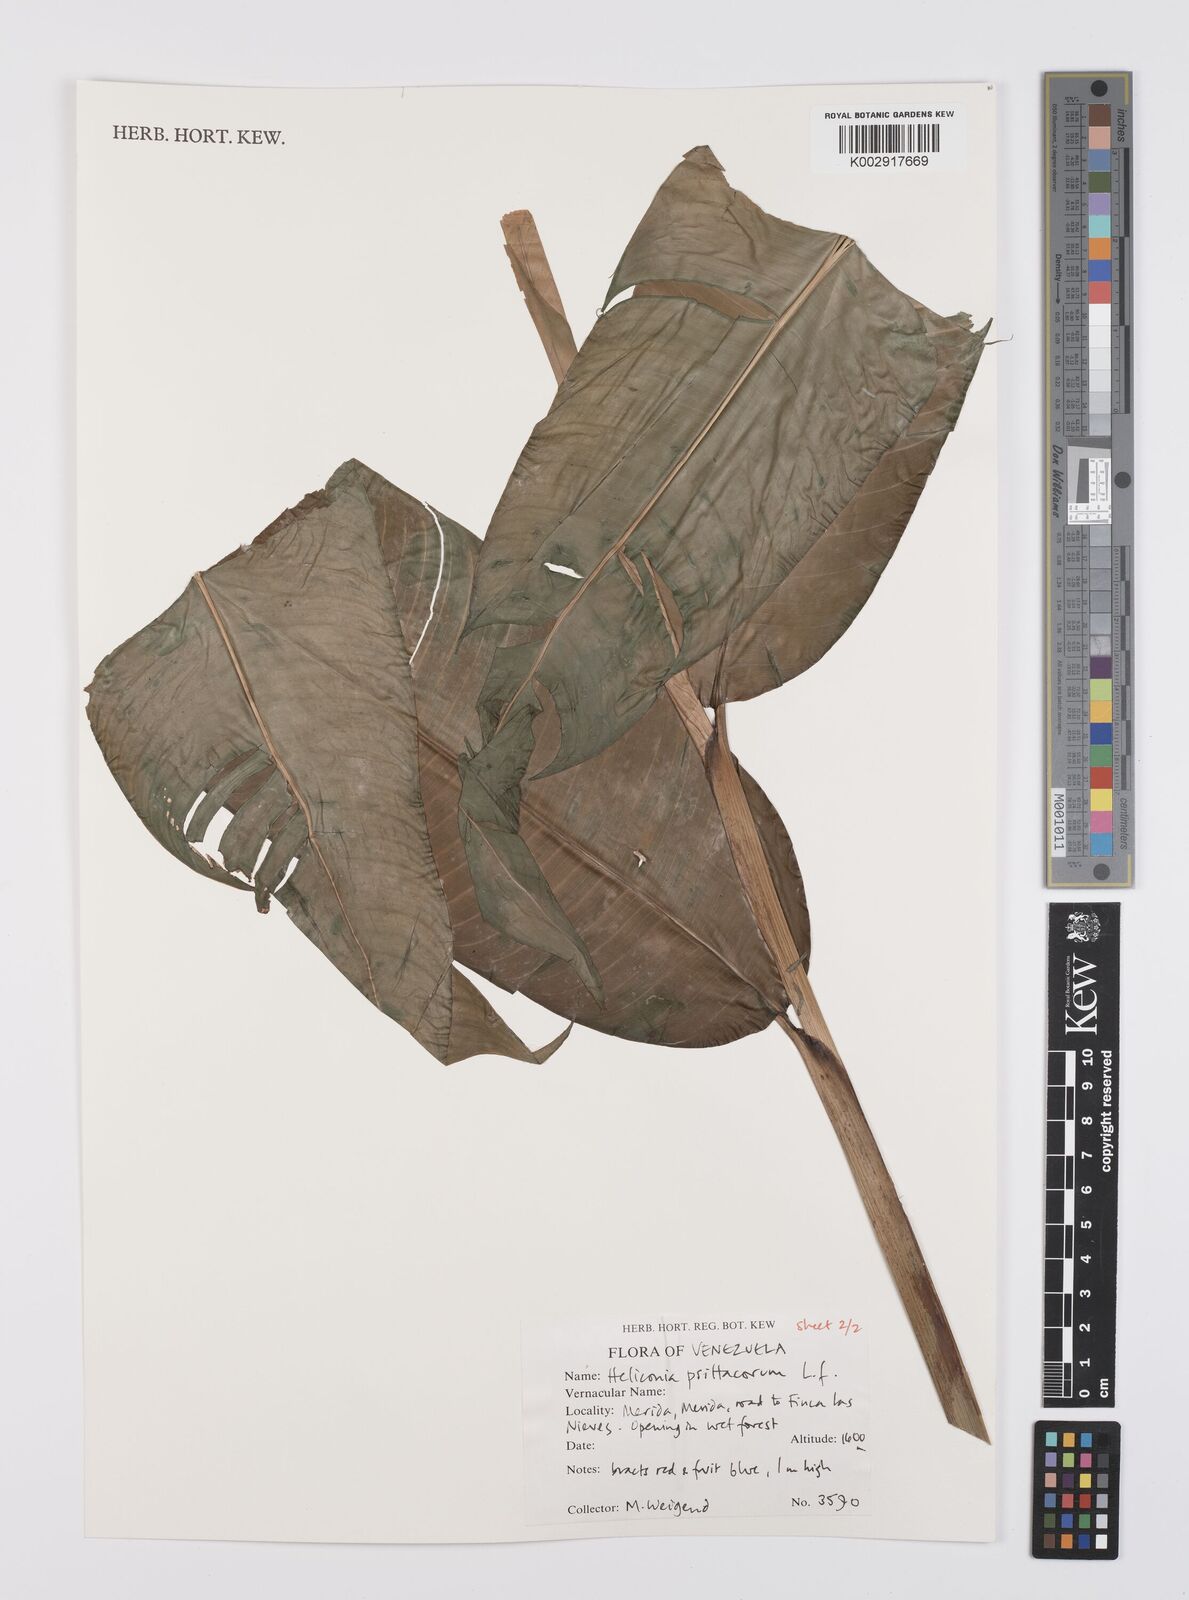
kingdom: Plantae
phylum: Tracheophyta
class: Liliopsida
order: Zingiberales
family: Heliconiaceae
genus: Heliconia
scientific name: Heliconia psittacorum
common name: Parrot's-flower
